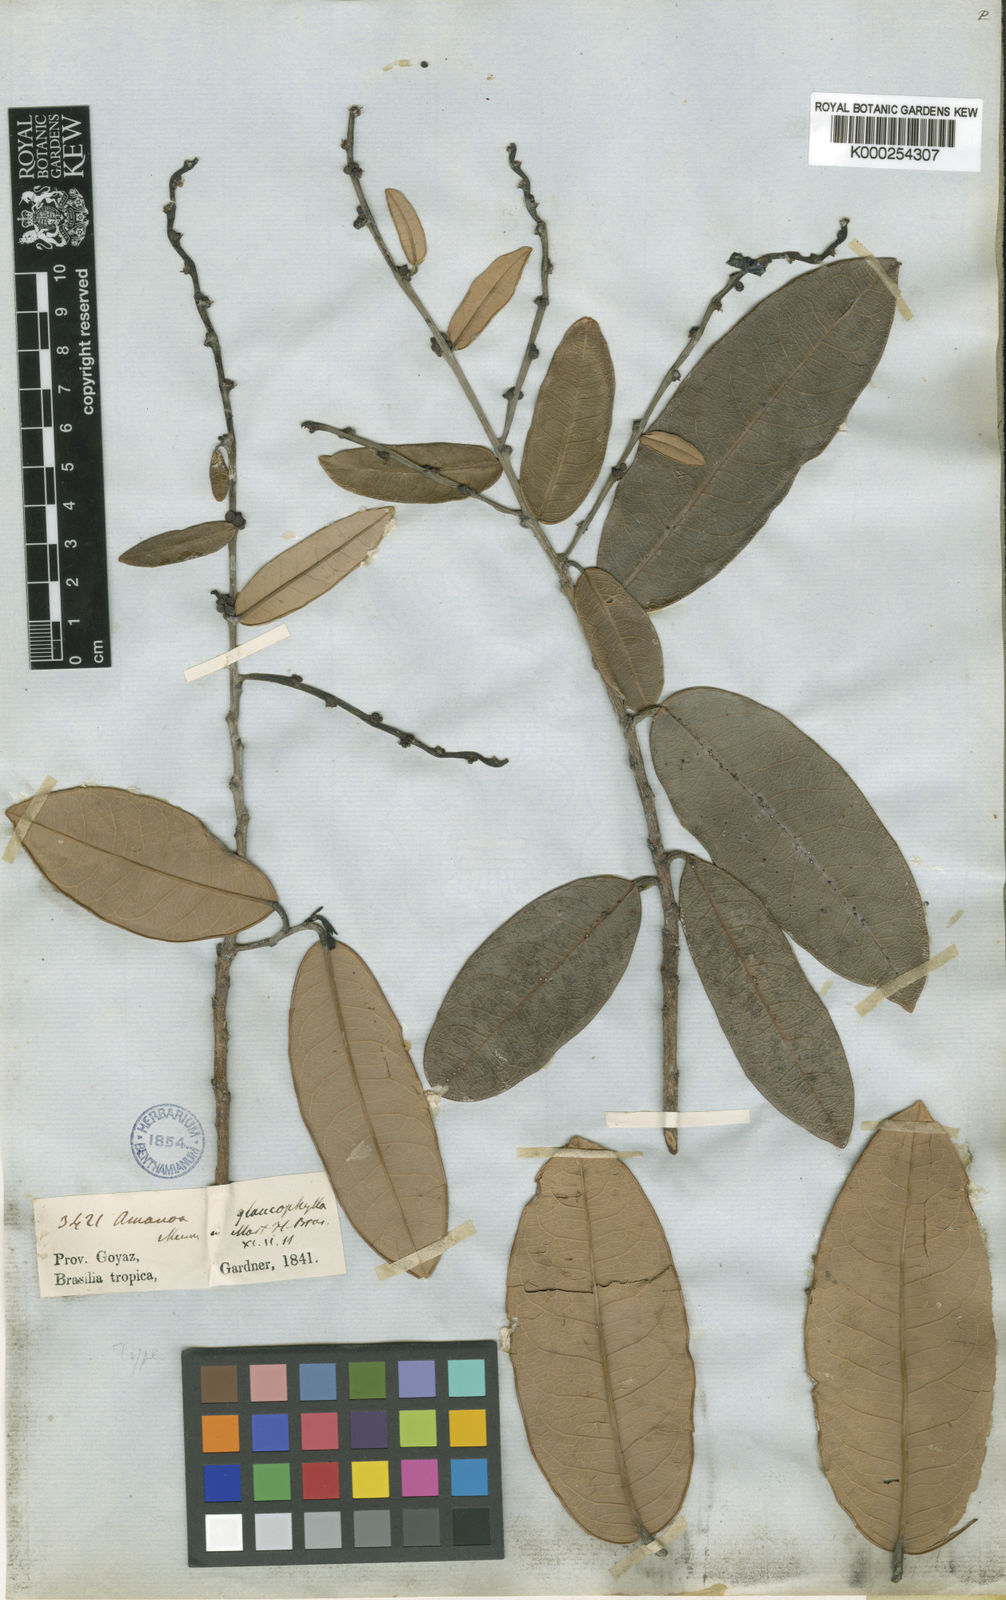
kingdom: Plantae
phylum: Tracheophyta
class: Magnoliopsida
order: Malpighiales
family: Phyllanthaceae
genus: Amanoa
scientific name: Amanoa glaucophylla
